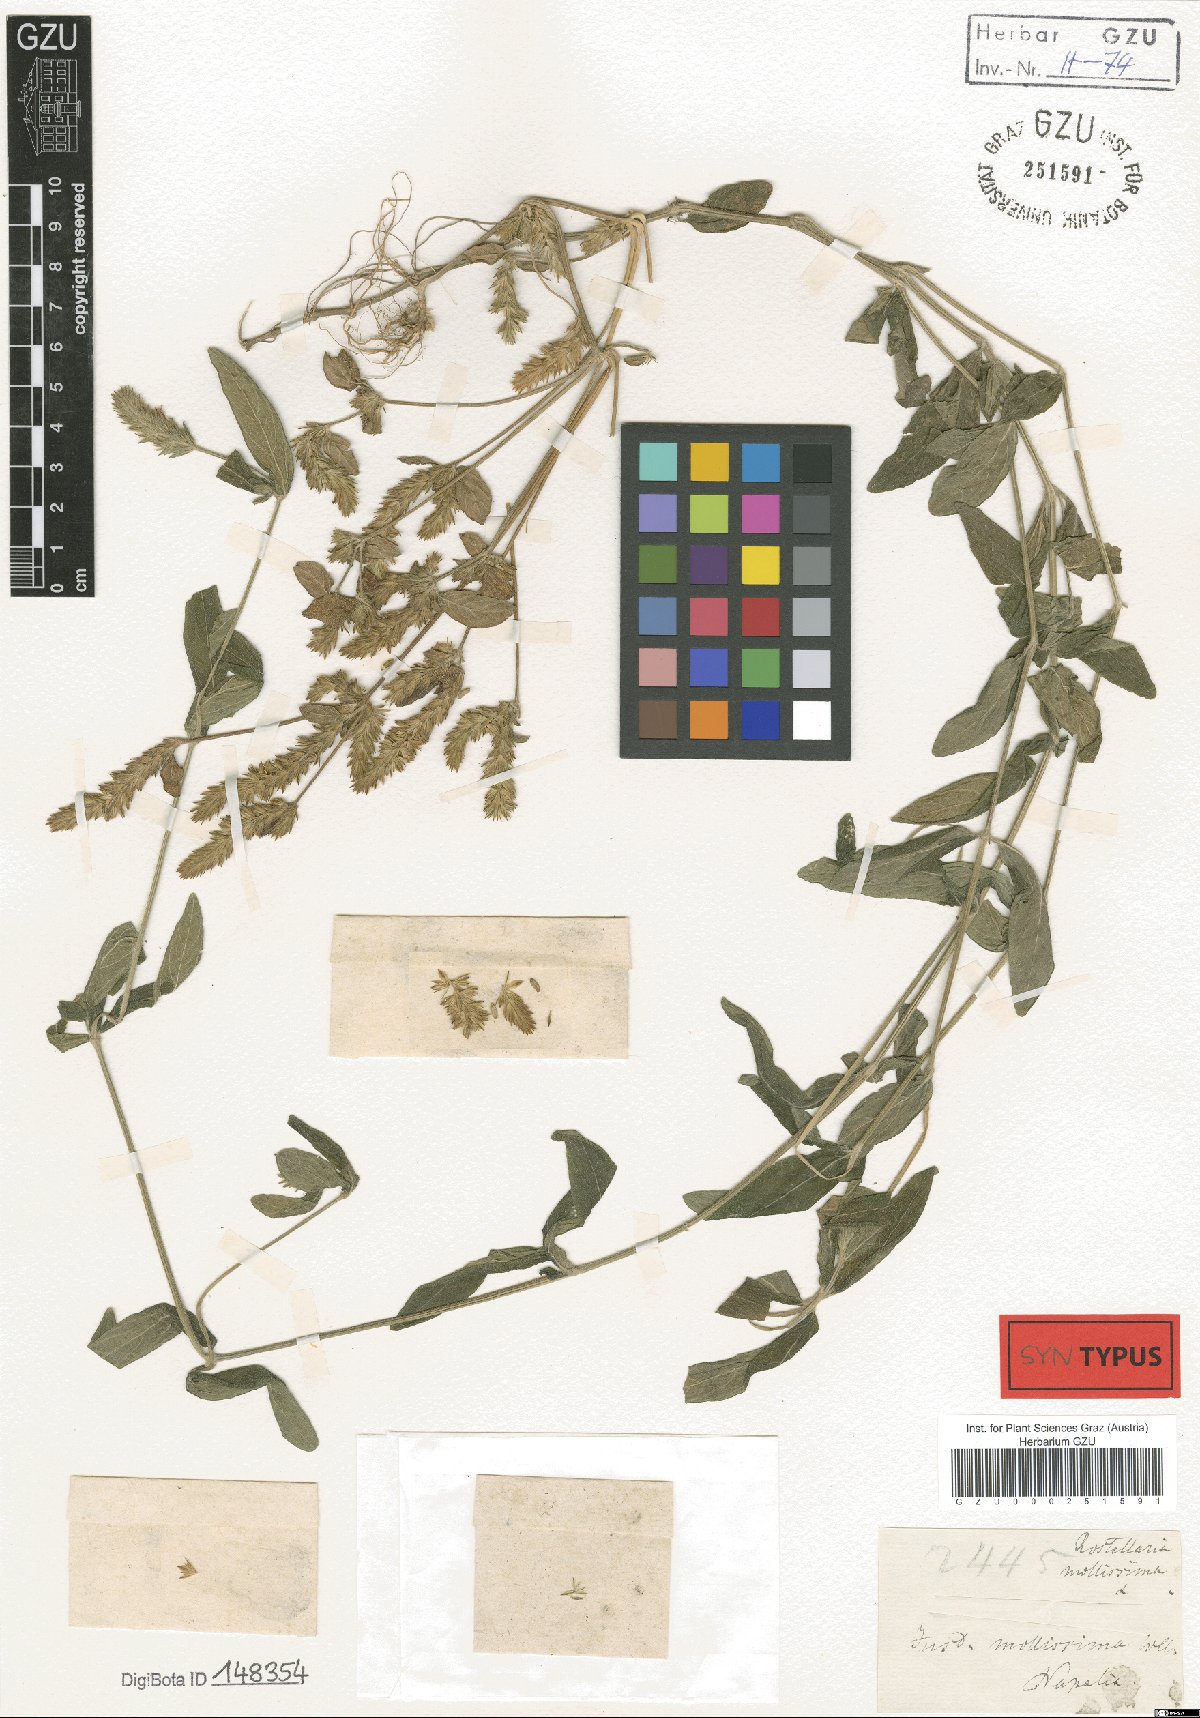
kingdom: Plantae
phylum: Tracheophyta
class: Magnoliopsida
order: Lamiales
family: Acanthaceae
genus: Rostellularia
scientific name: Rostellularia mollissima
